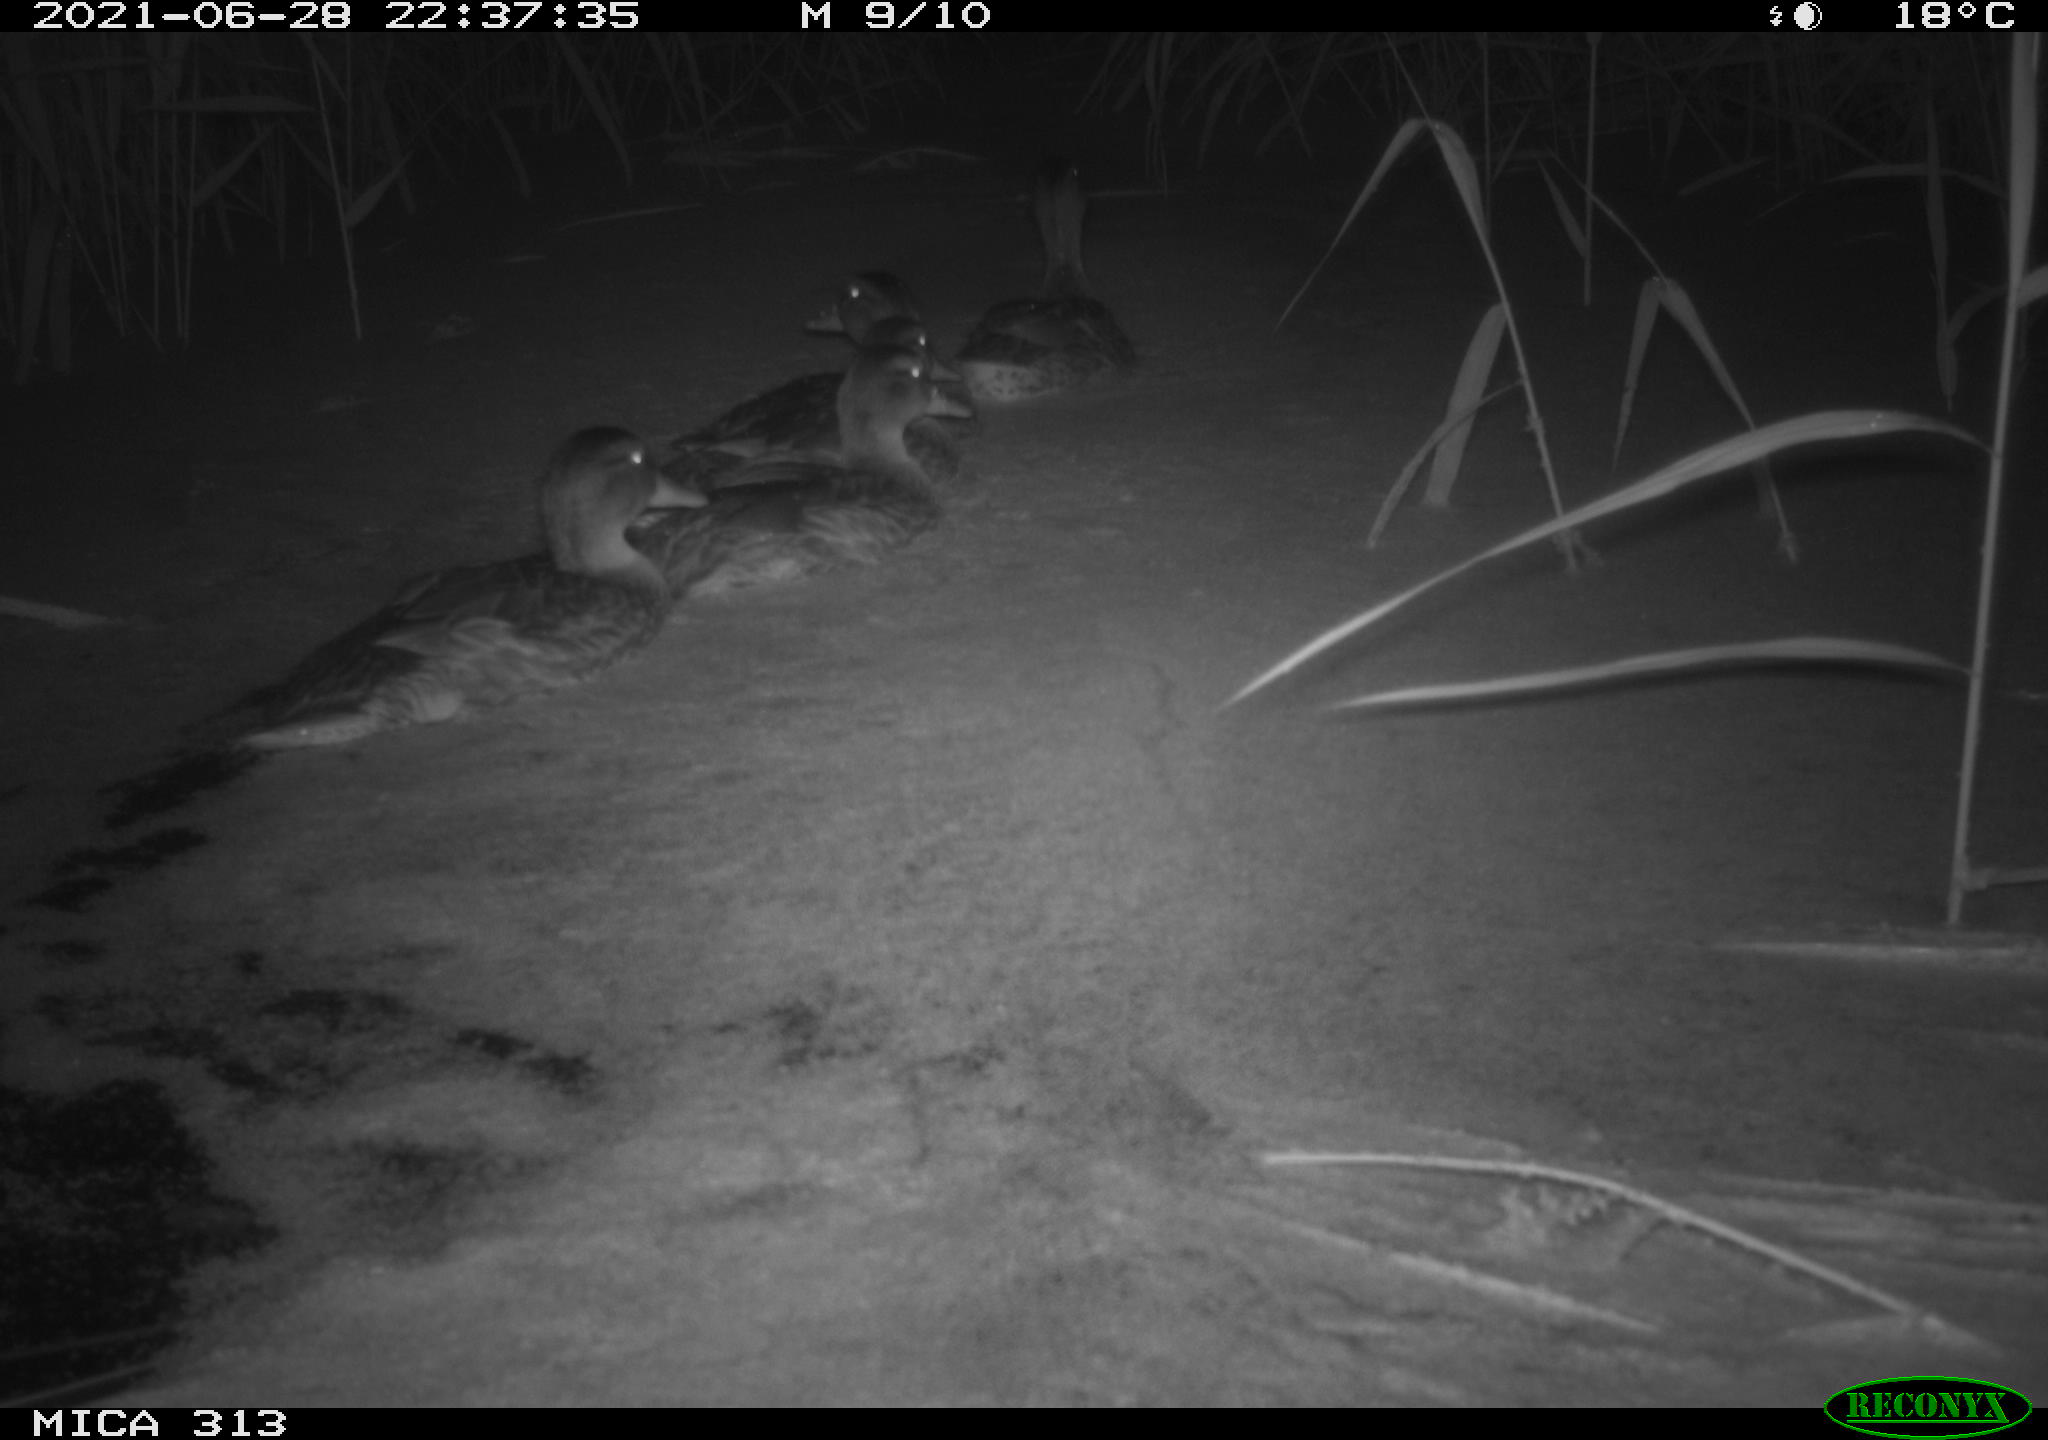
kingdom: Animalia
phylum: Chordata
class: Aves
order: Anseriformes
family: Anatidae
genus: Anas
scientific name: Anas platyrhynchos
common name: Mallard
